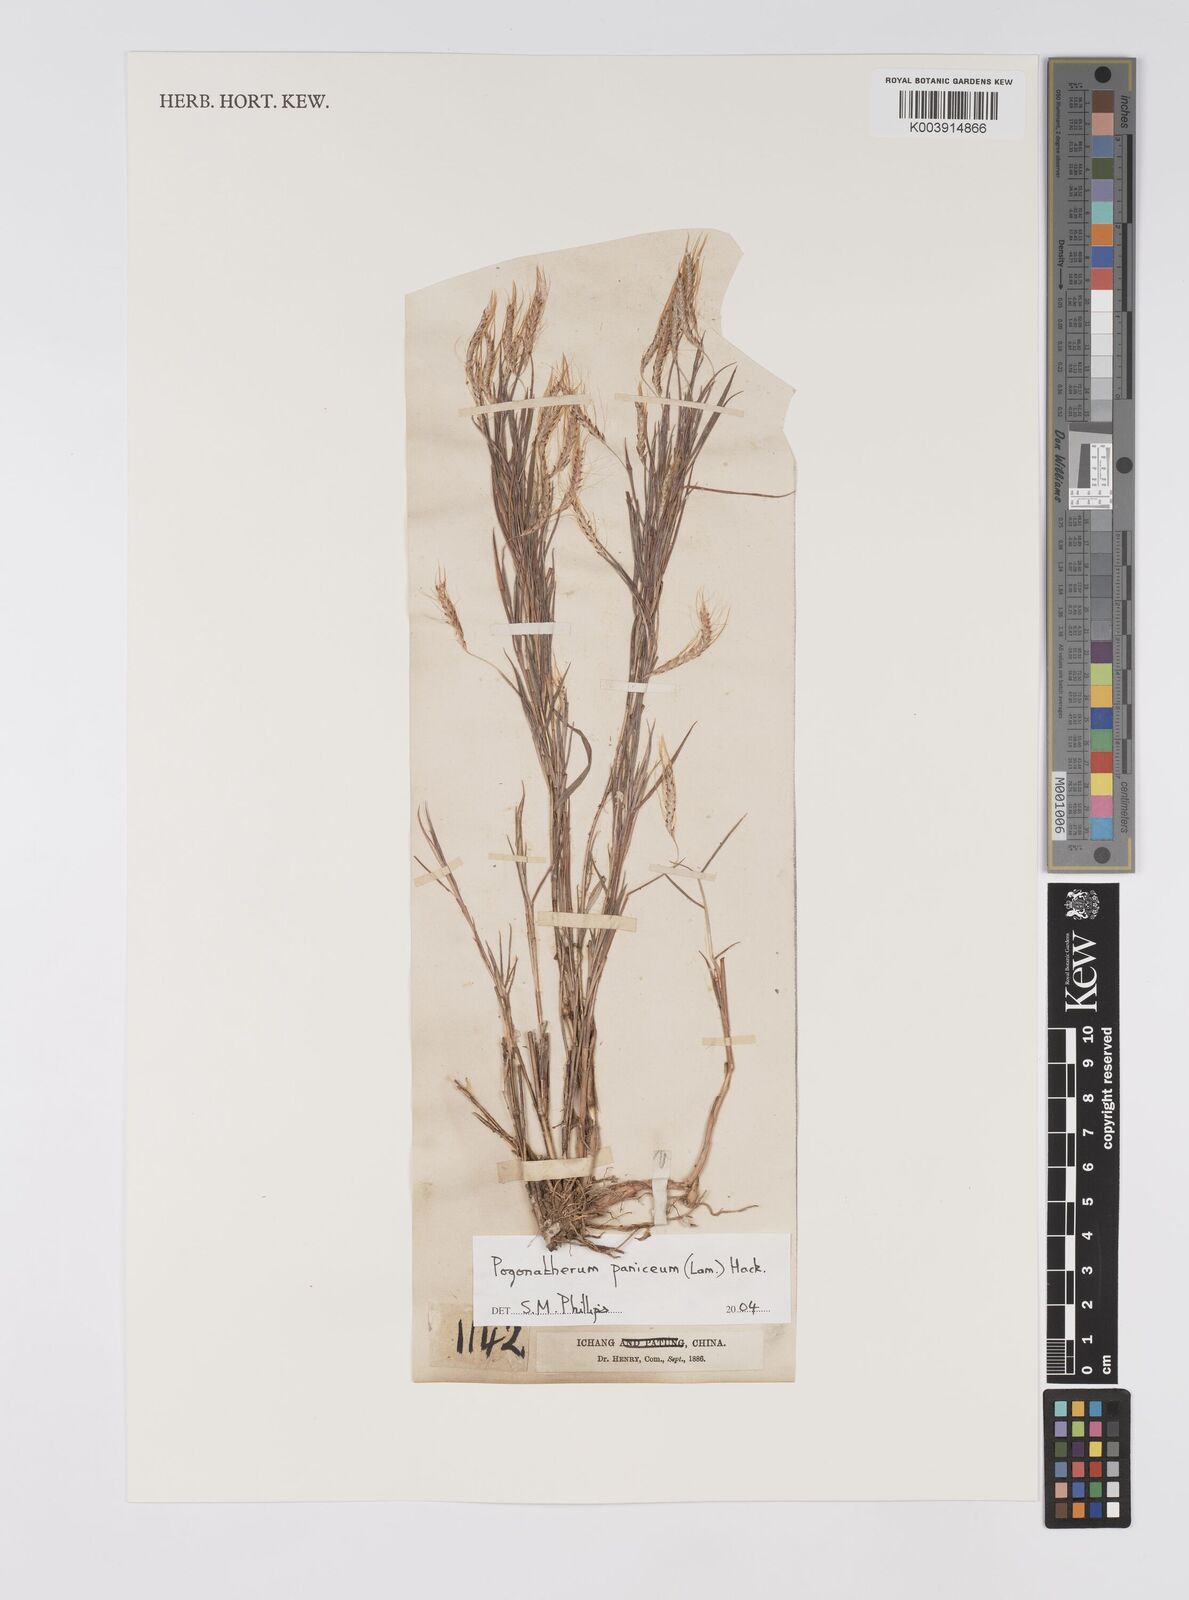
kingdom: Plantae
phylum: Tracheophyta
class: Liliopsida
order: Poales
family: Poaceae
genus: Pogonatherum
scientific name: Pogonatherum paniceum
